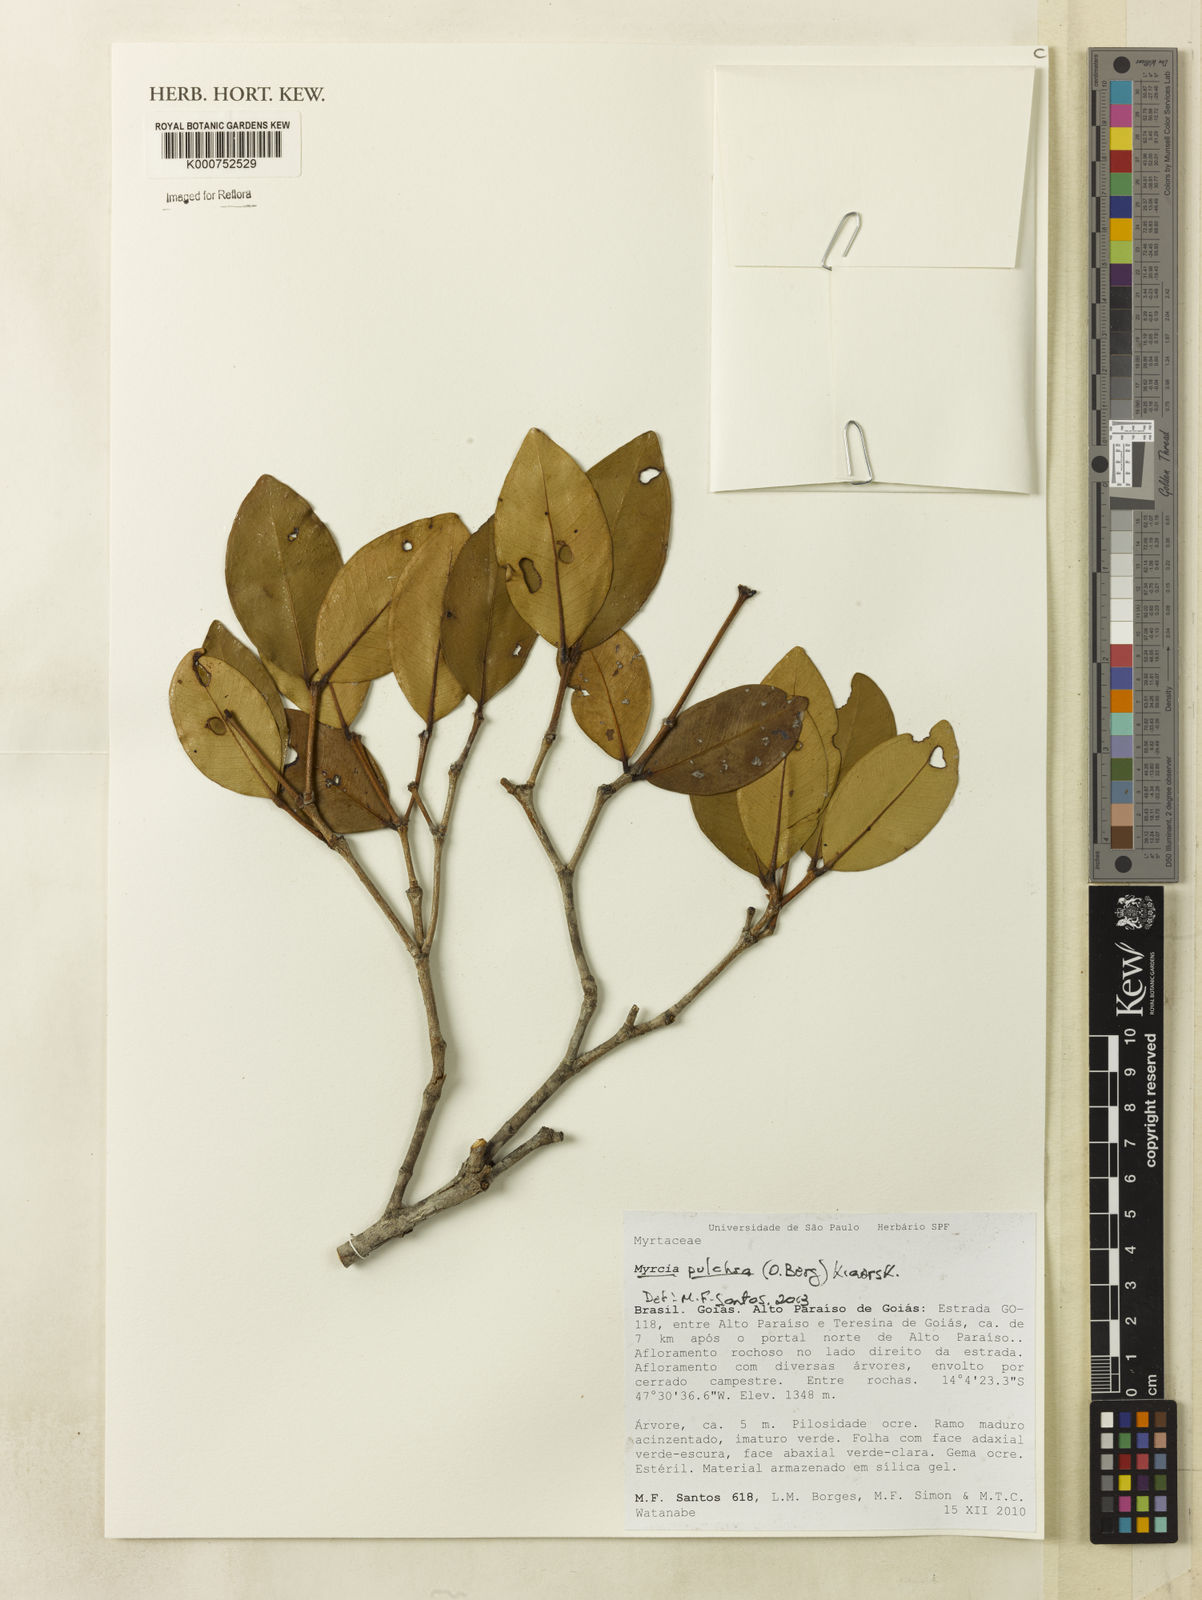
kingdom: Plantae
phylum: Tracheophyta
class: Magnoliopsida
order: Myrtales
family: Myrtaceae
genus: Myrcia
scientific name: Myrcia pulchra
